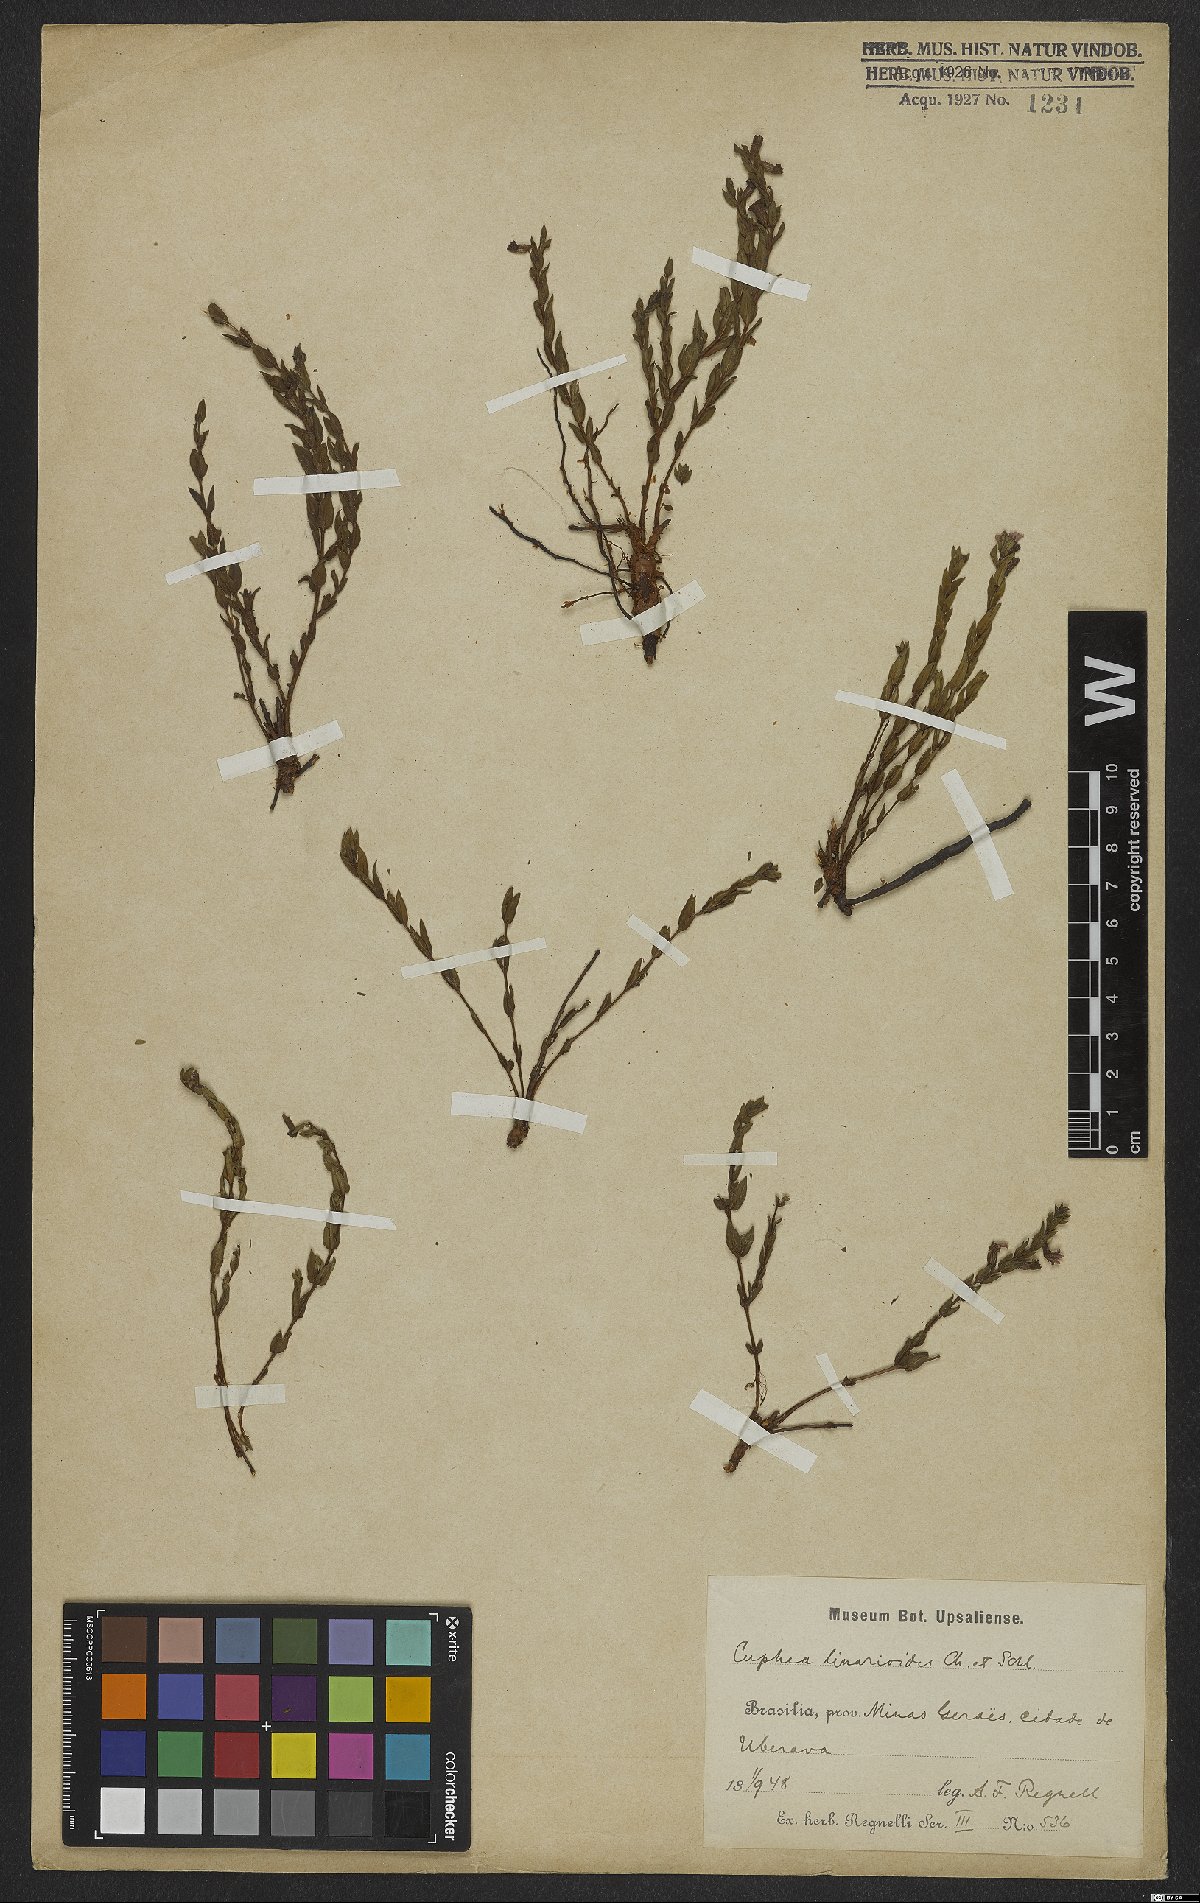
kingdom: Plantae
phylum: Tracheophyta
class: Magnoliopsida
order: Myrtales
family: Lythraceae
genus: Cuphea
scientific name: Cuphea linarioides
